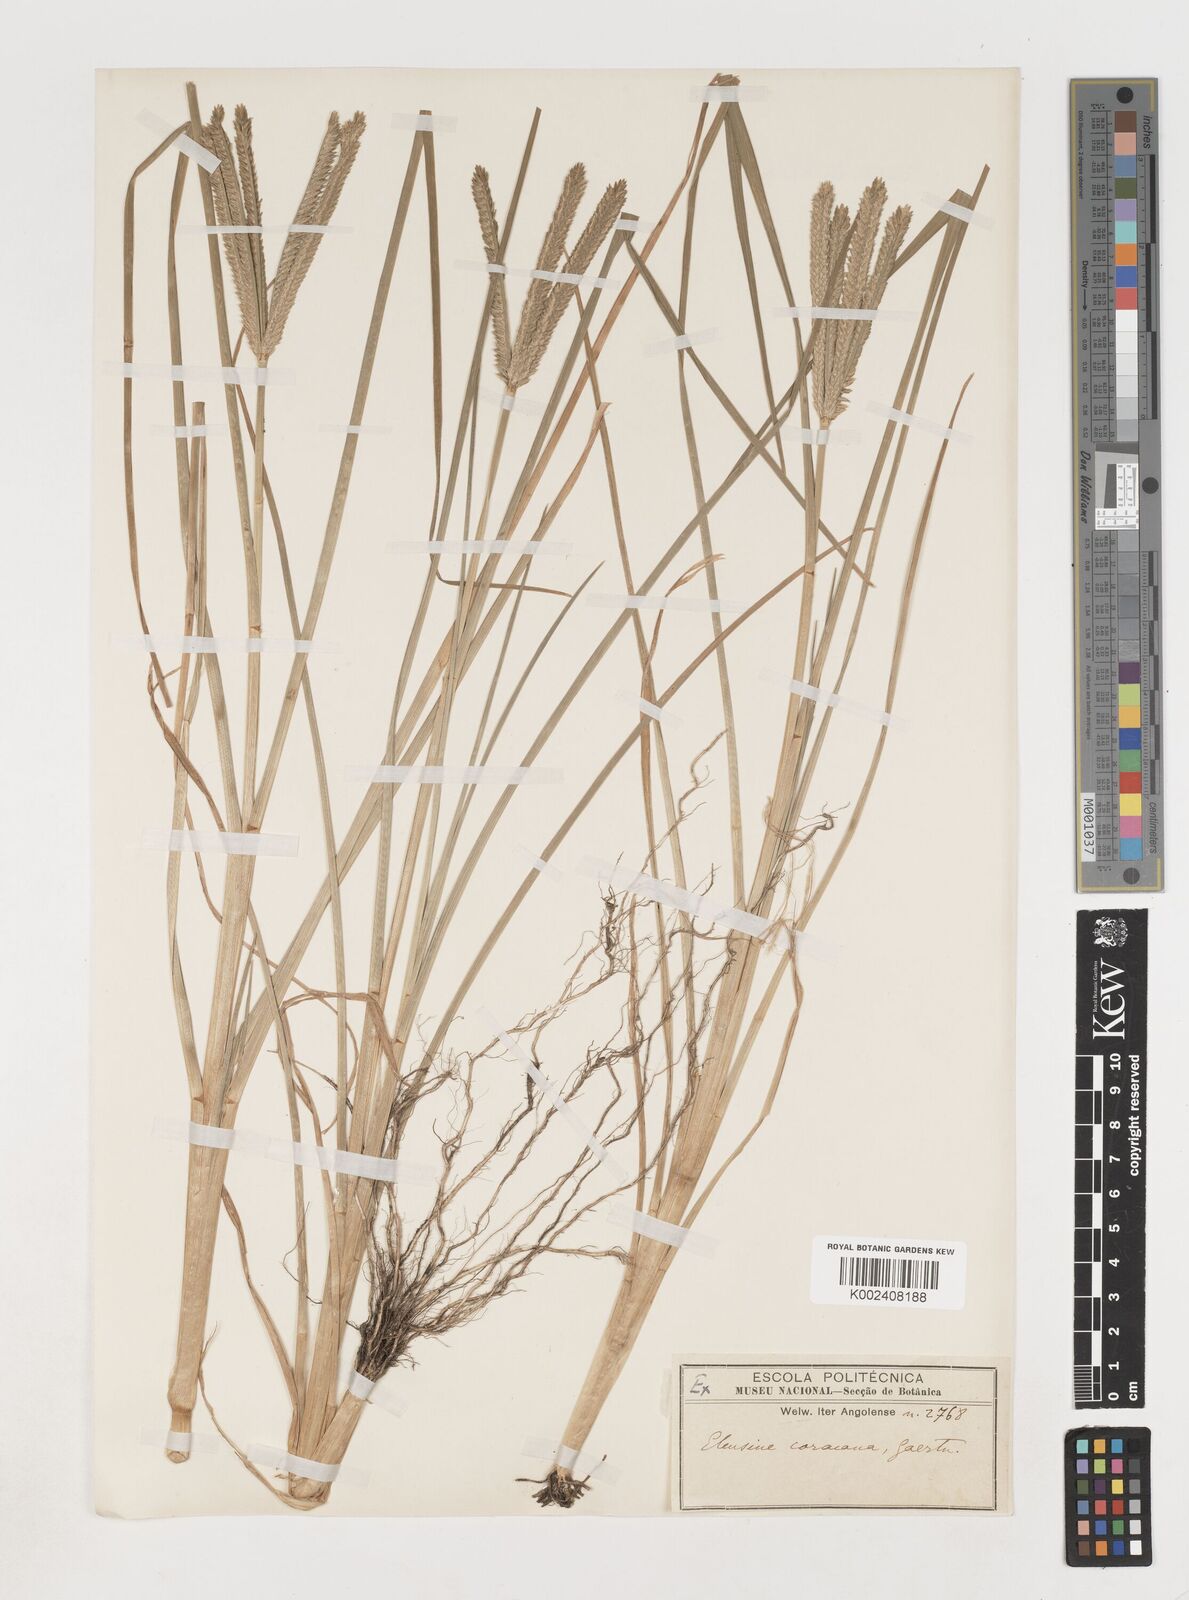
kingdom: Plantae
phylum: Tracheophyta
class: Liliopsida
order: Poales
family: Poaceae
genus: Eleusine
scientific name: Eleusine coracana
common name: Finger millet
